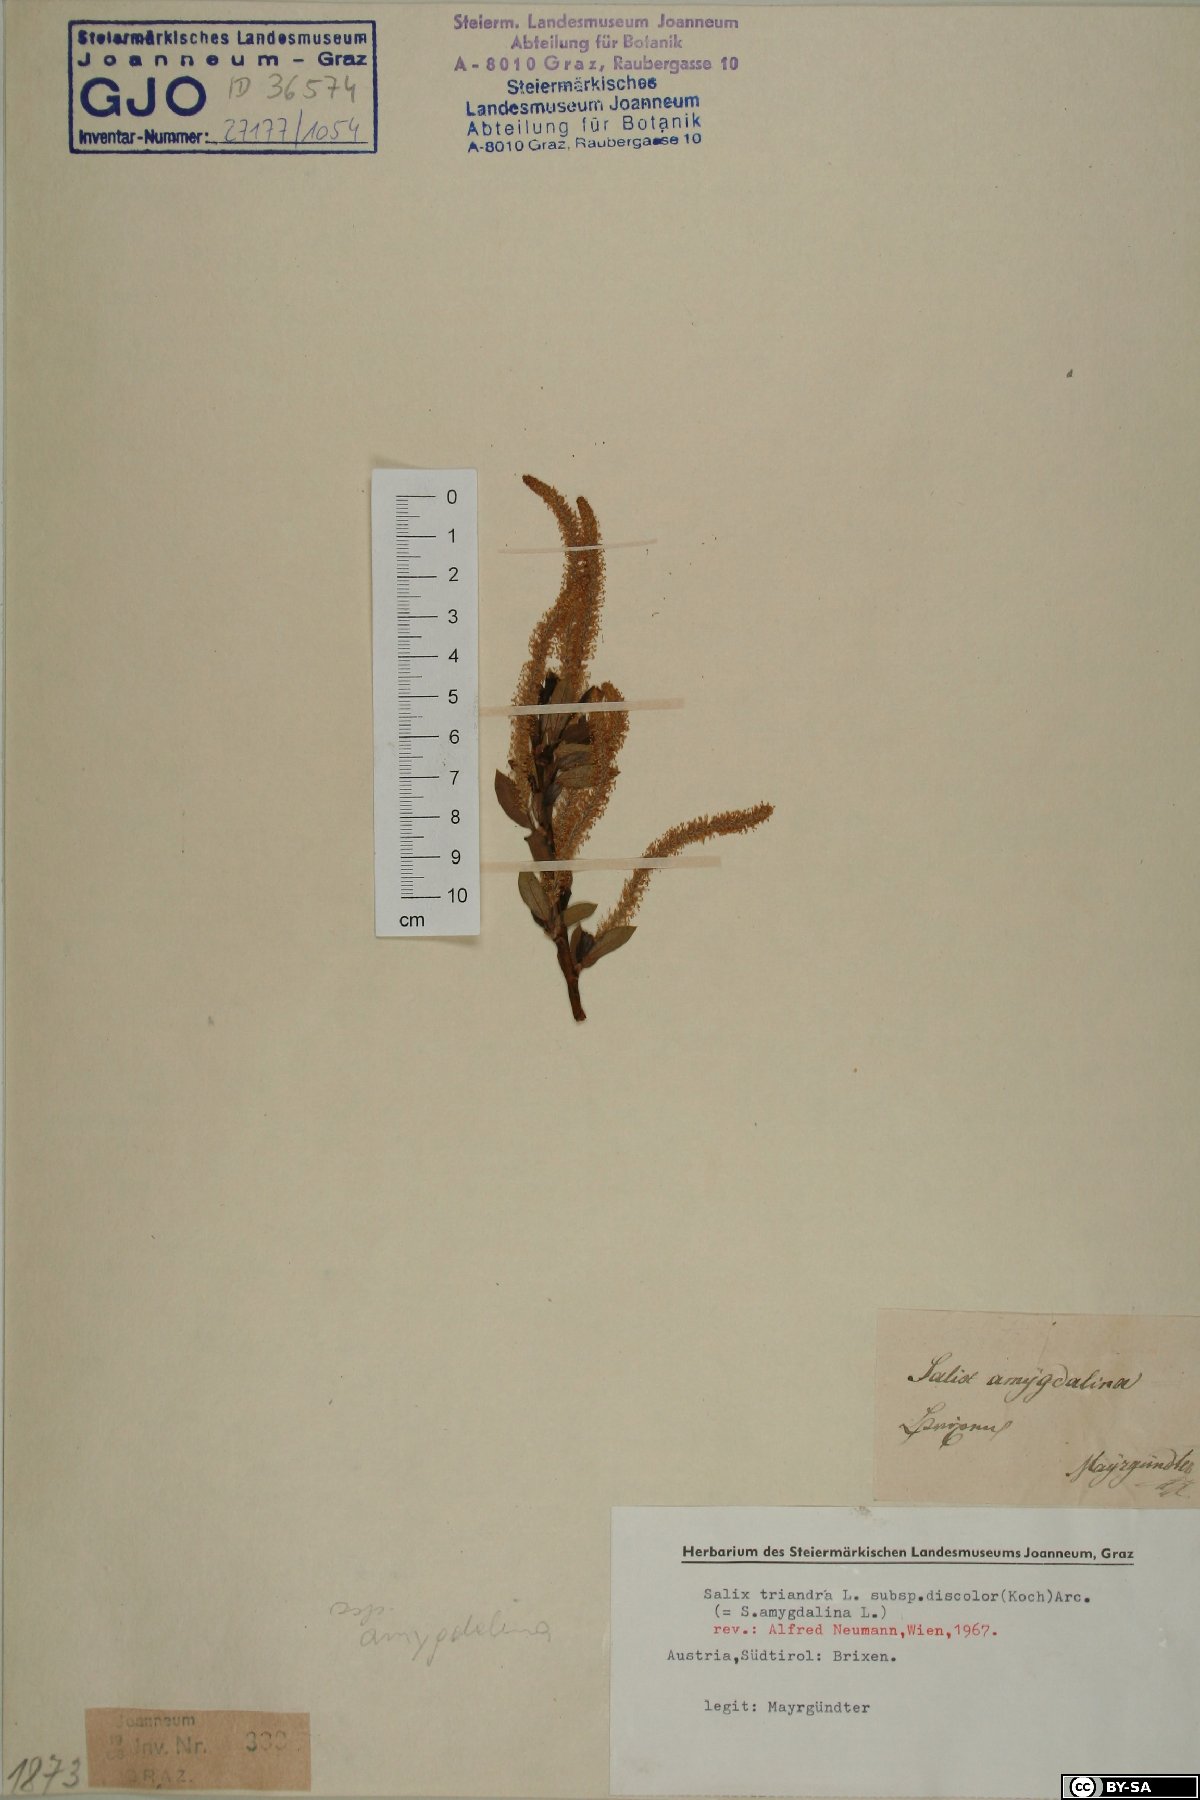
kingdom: Plantae
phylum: Tracheophyta
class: Magnoliopsida
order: Malpighiales
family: Salicaceae
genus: Salix
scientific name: Salix triandra
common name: Almond willow
